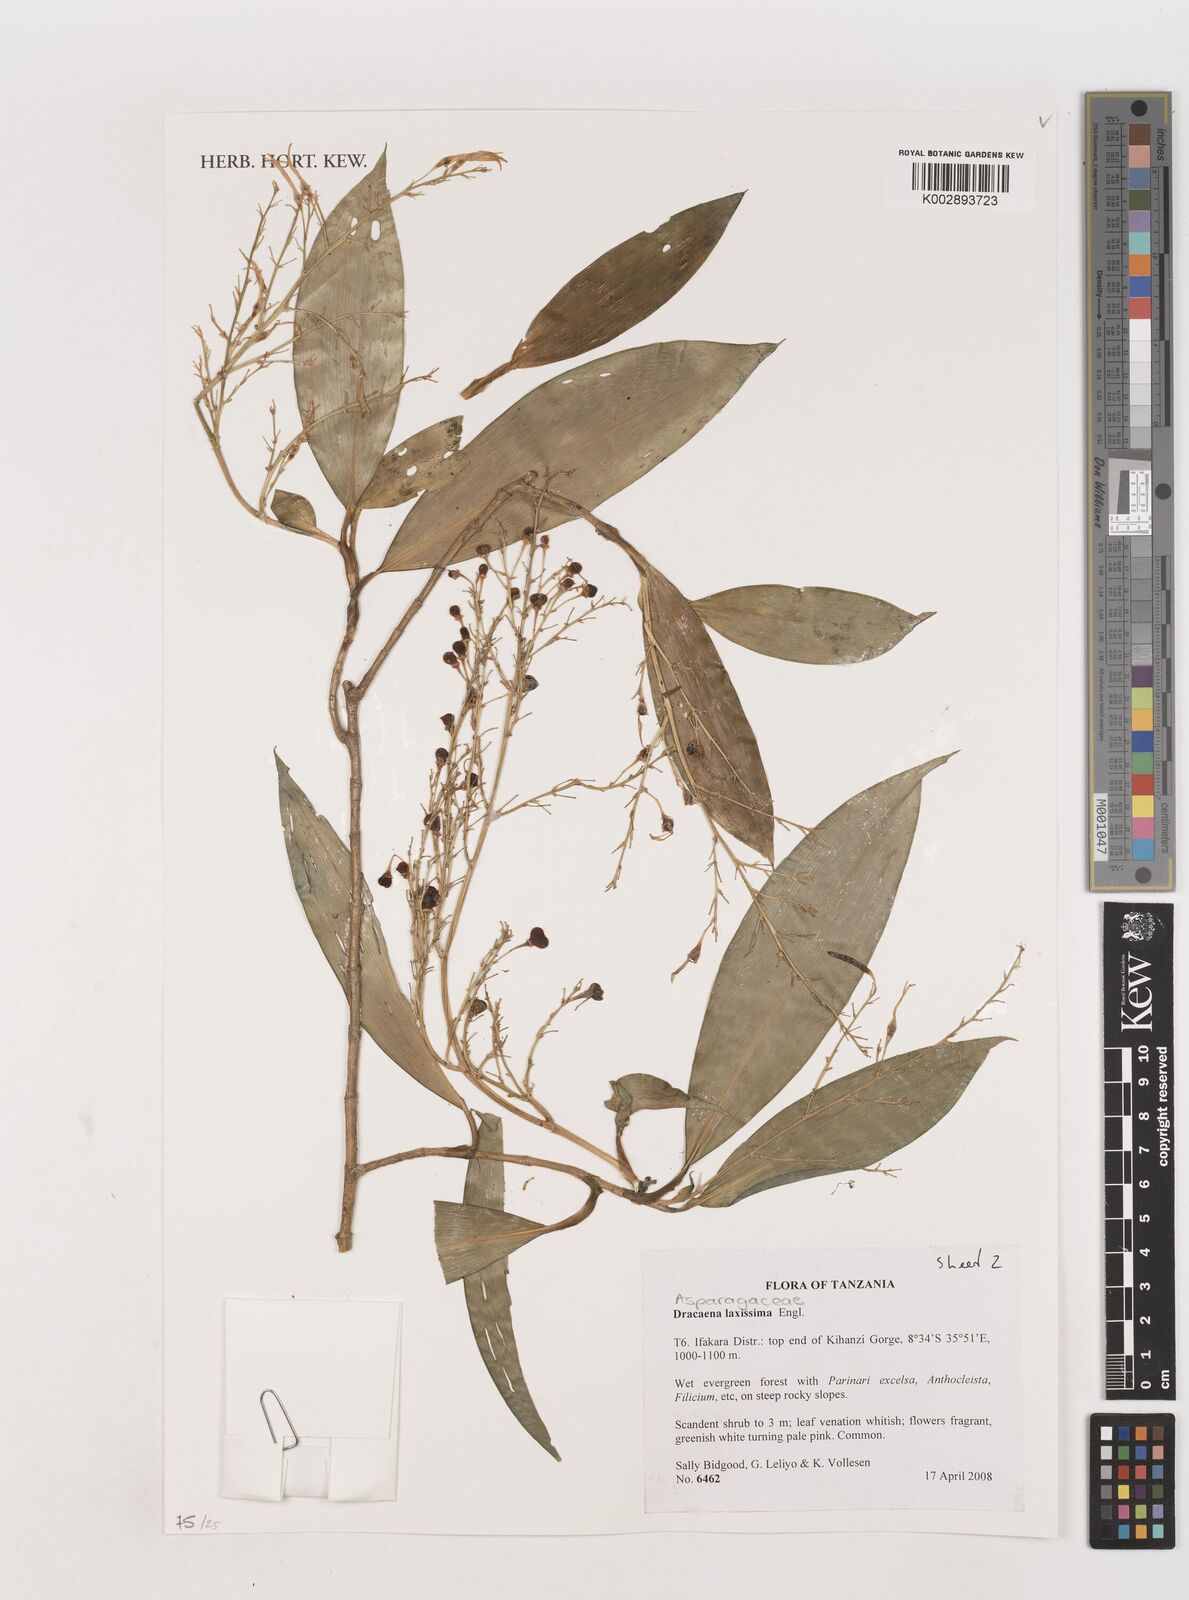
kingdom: Plantae
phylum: Tracheophyta
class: Liliopsida
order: Asparagales
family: Asparagaceae
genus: Dracaena
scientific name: Dracaena laxissima
